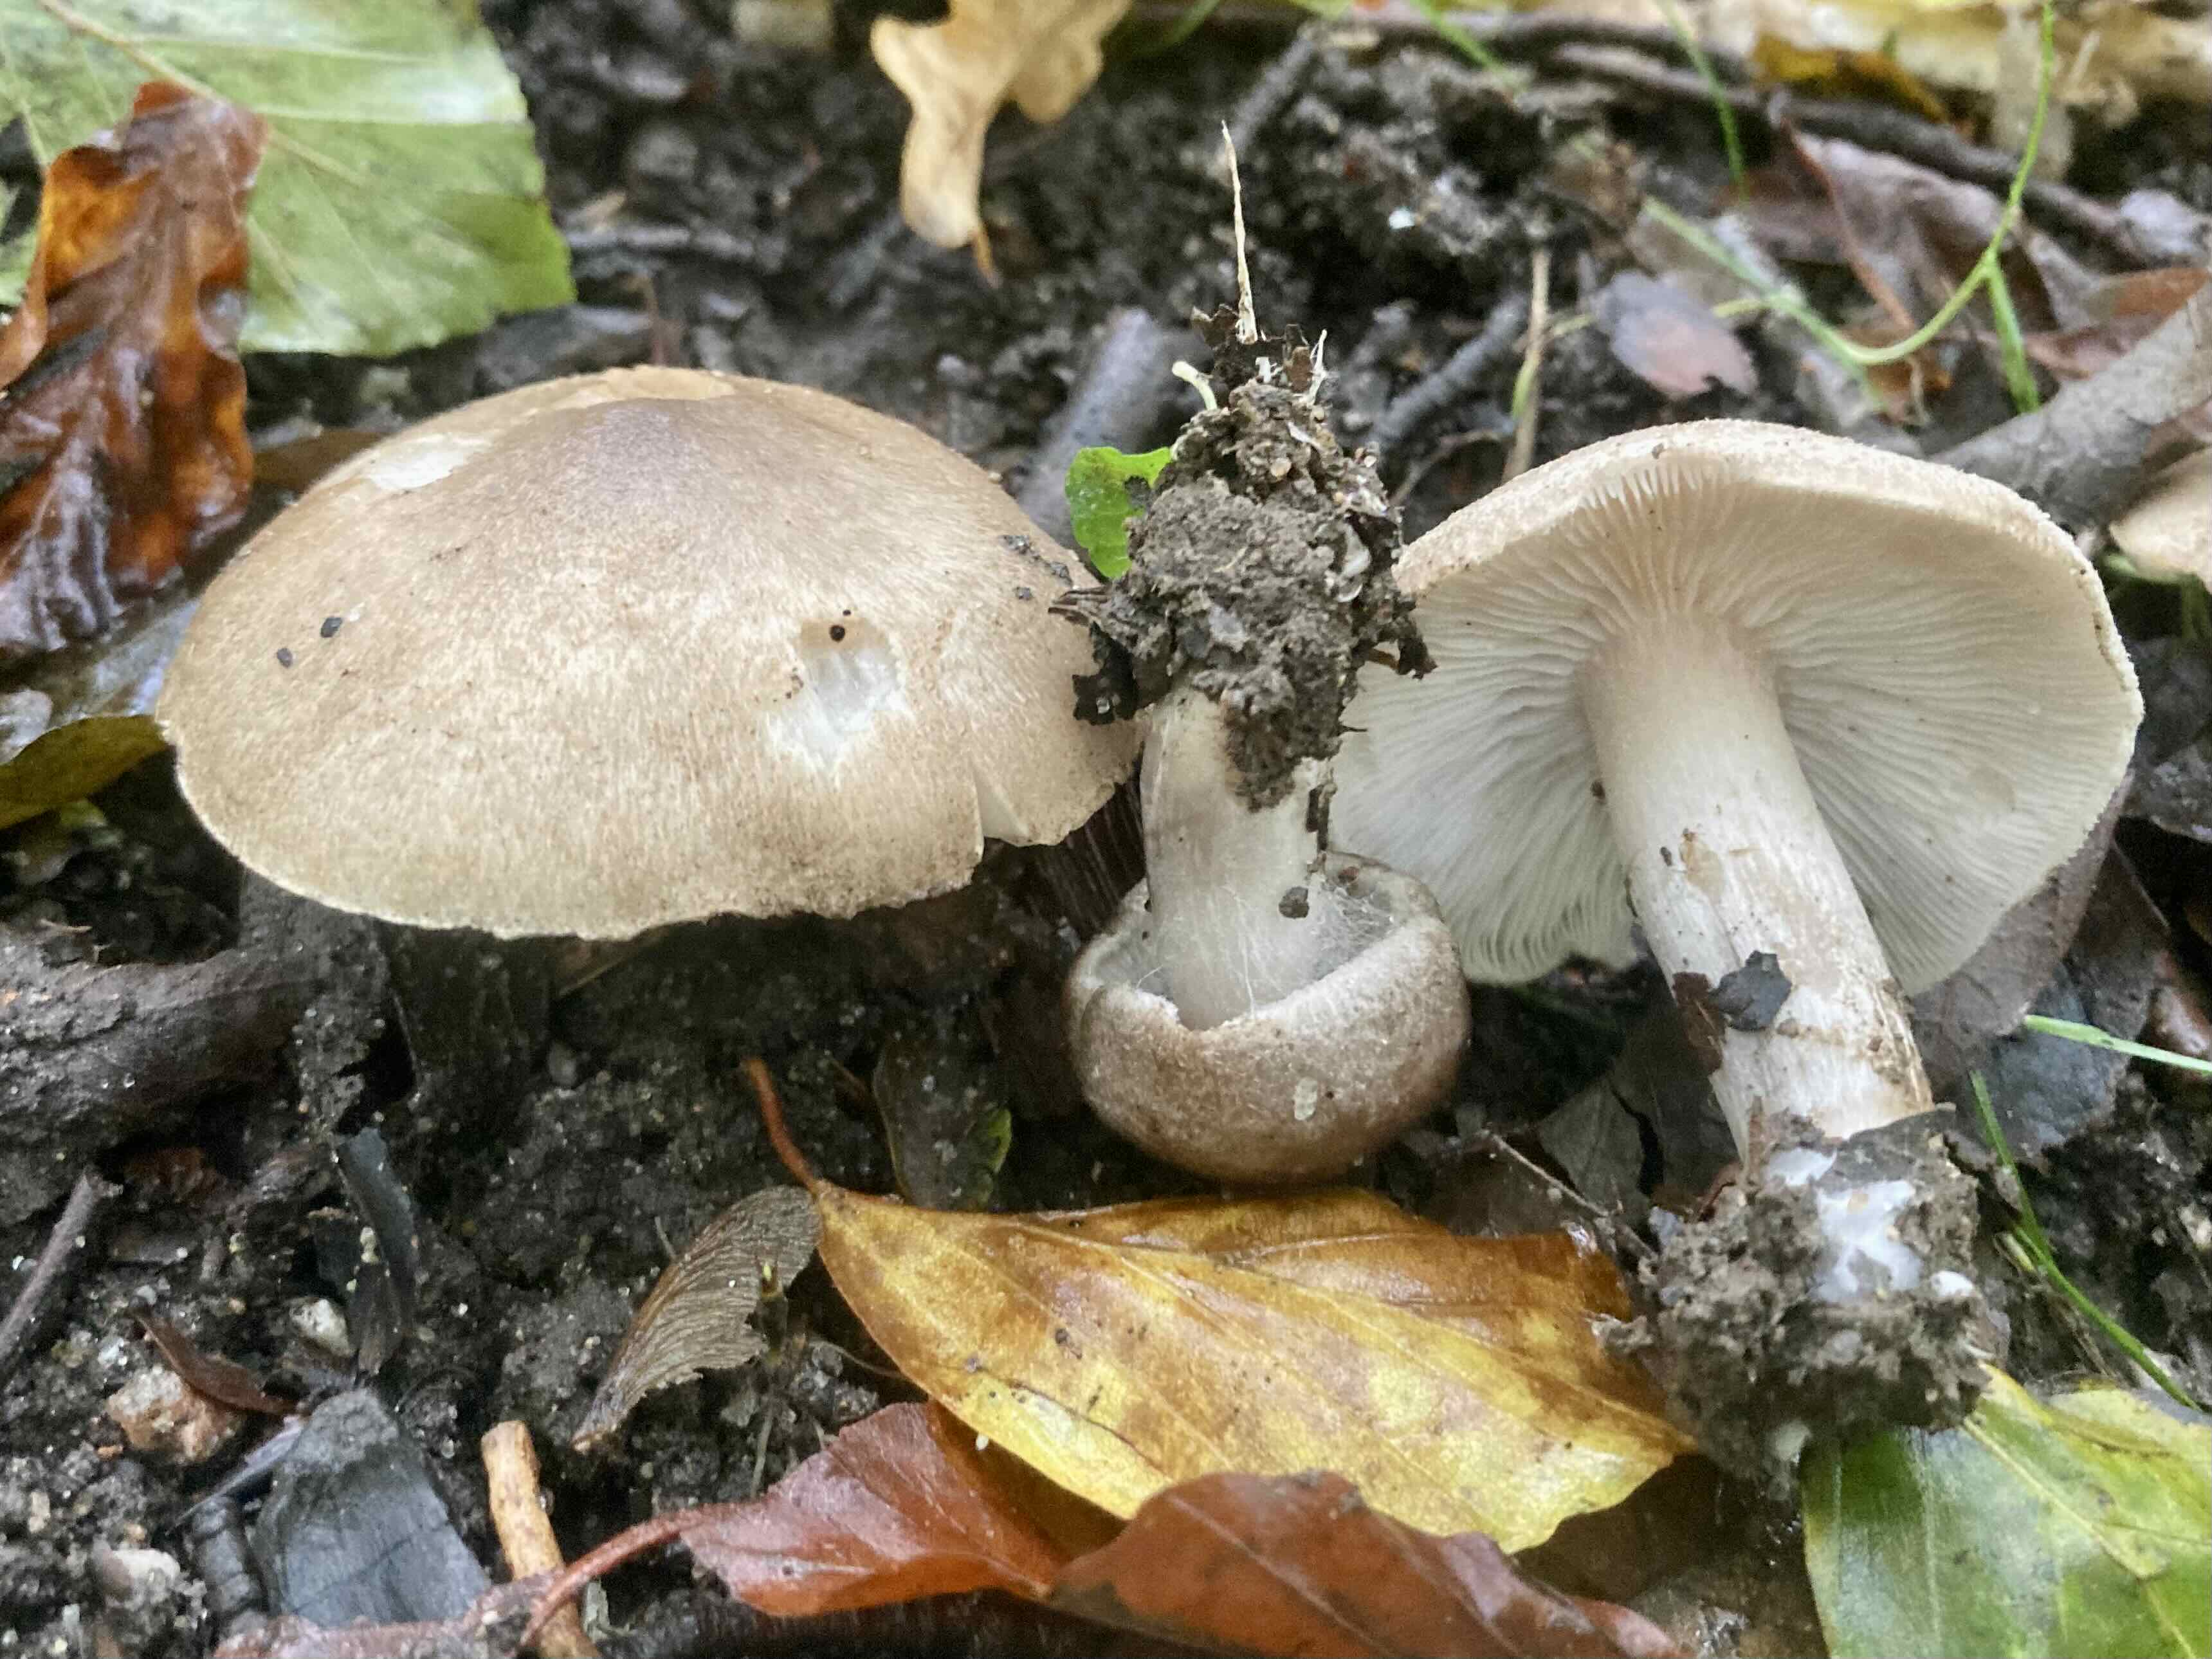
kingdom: Fungi
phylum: Basidiomycota
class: Agaricomycetes
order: Agaricales
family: Tricholomataceae
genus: Tricholoma
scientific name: Tricholoma argyraceum
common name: slør-ridderhat
